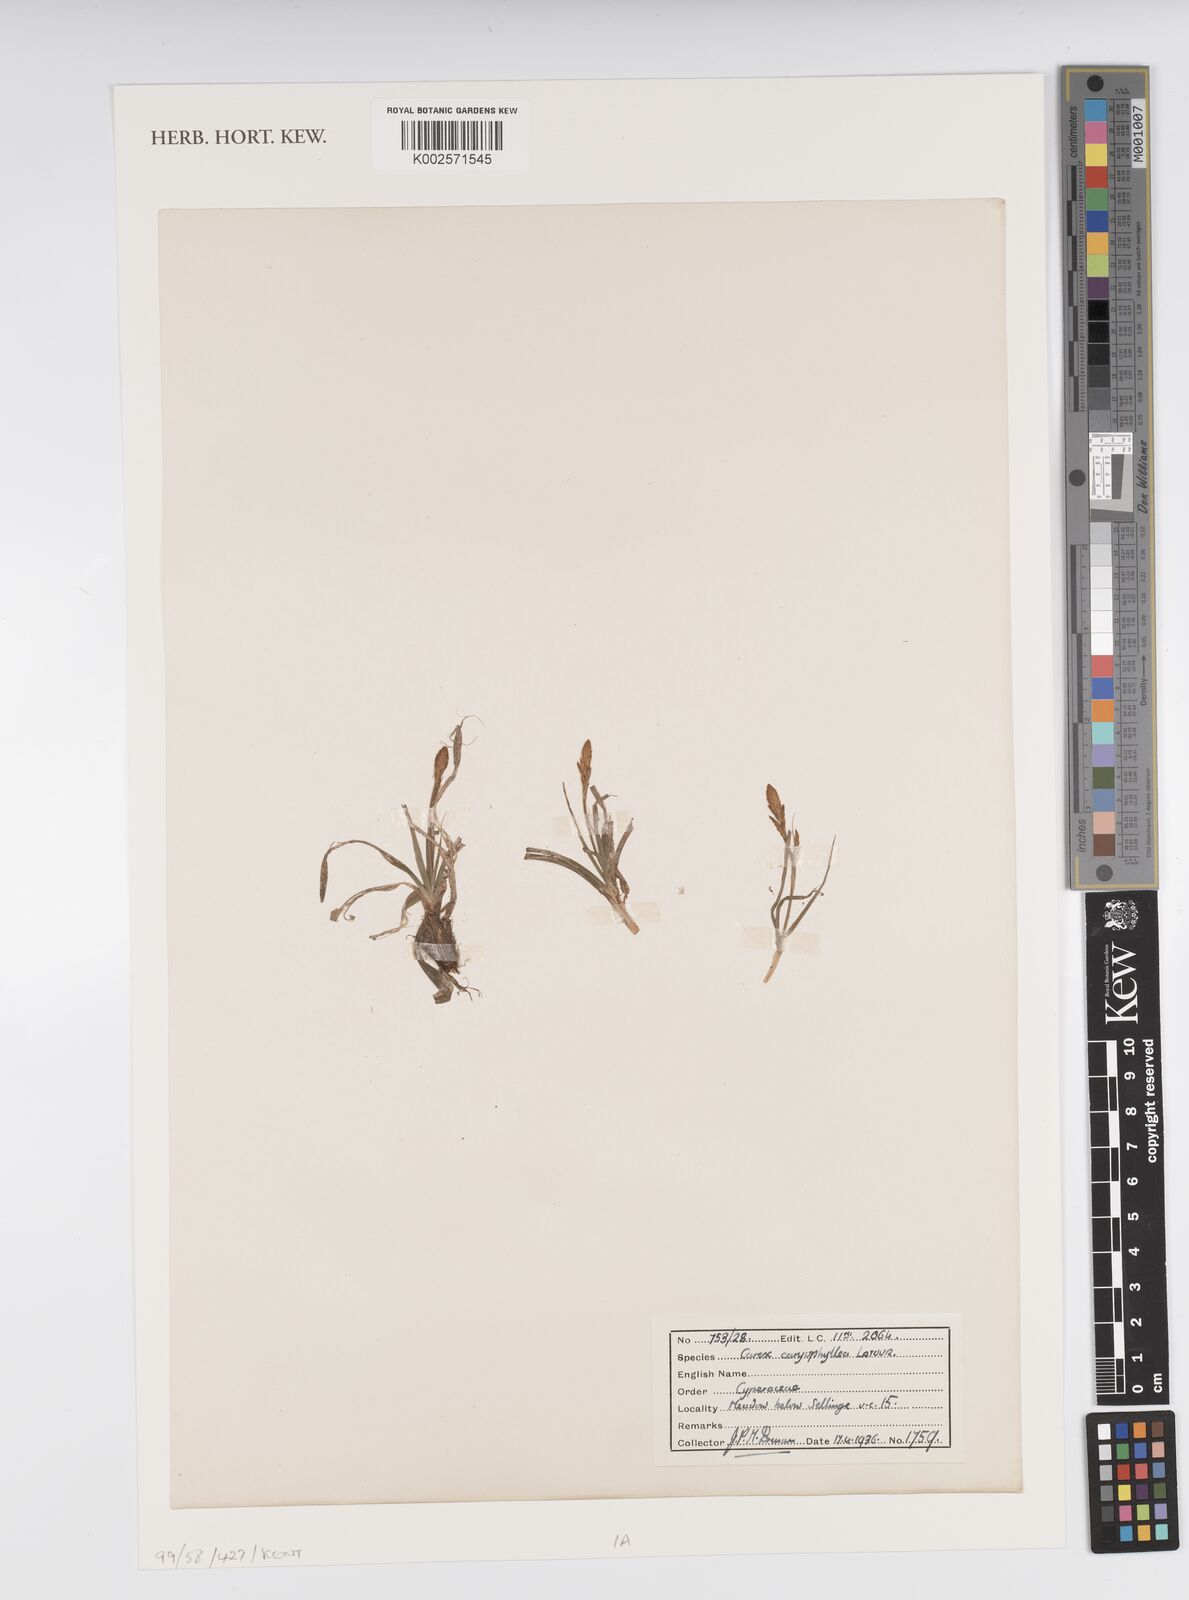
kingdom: Plantae
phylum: Tracheophyta
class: Liliopsida
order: Poales
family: Cyperaceae
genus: Carex
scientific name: Carex caryophyllea
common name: Spring sedge
